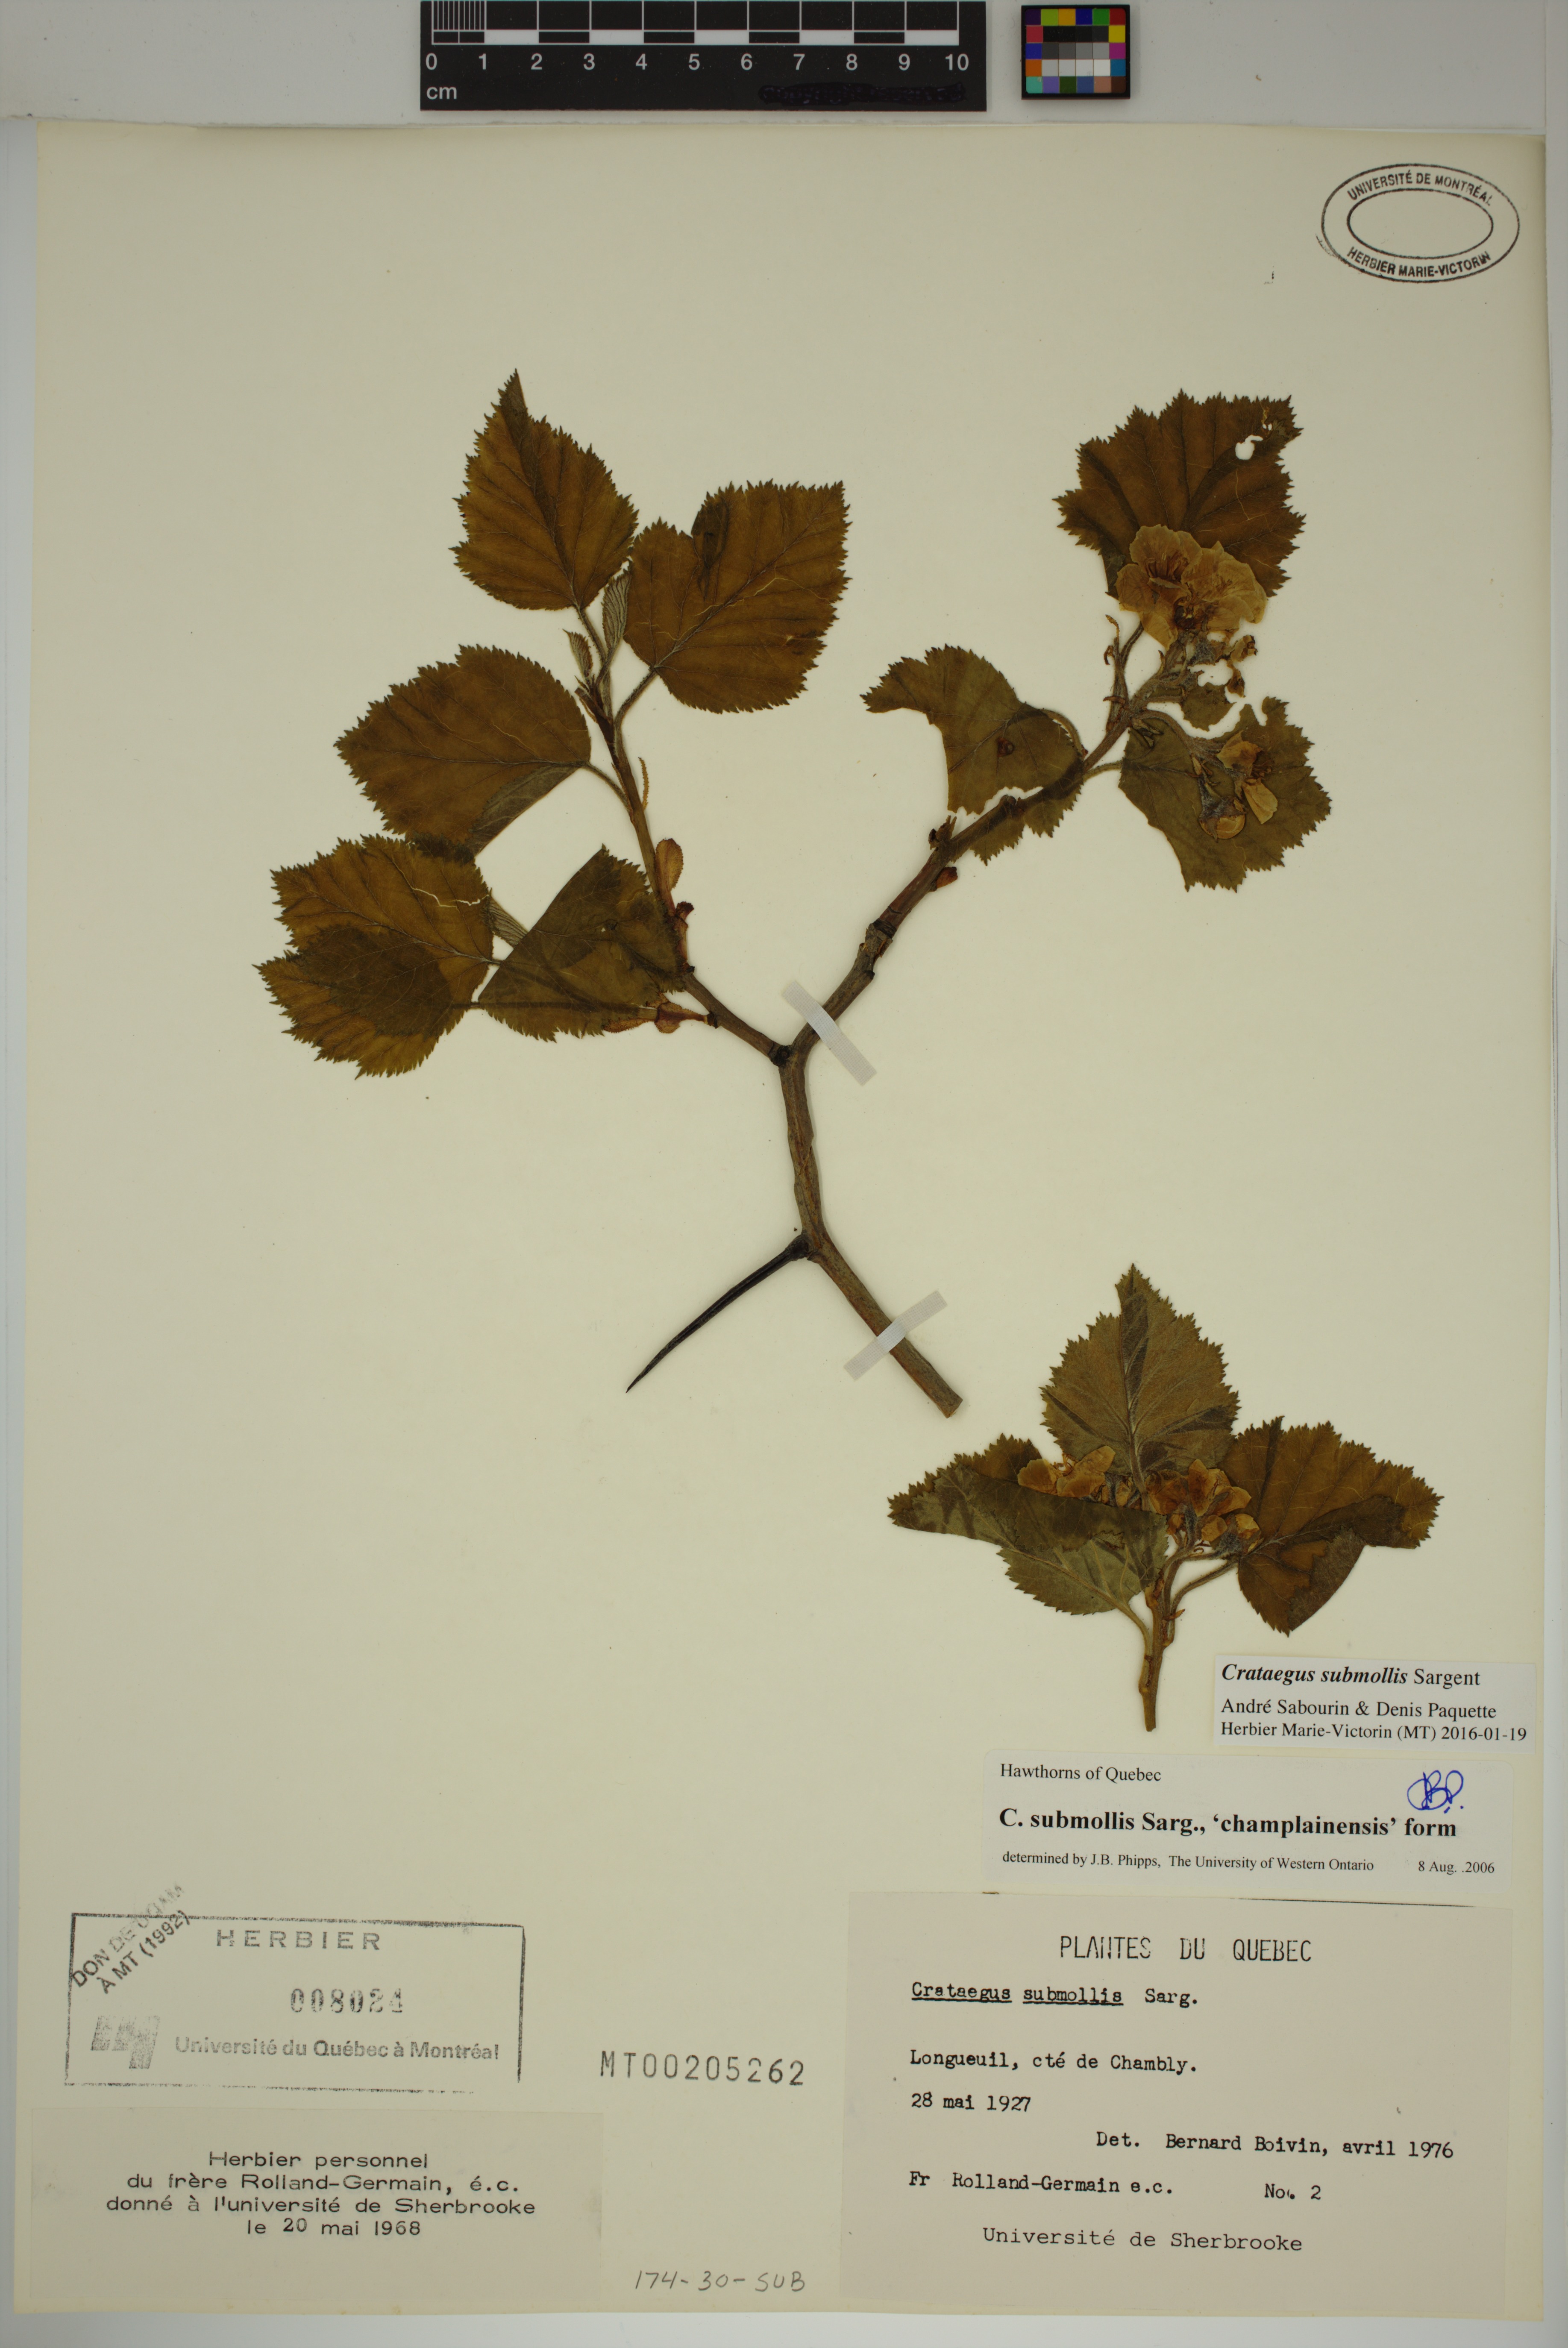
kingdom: Plantae
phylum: Tracheophyta
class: Magnoliopsida
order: Rosales
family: Rosaceae
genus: Crataegus
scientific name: Crataegus submollis
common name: Hairy cockspurthorn
